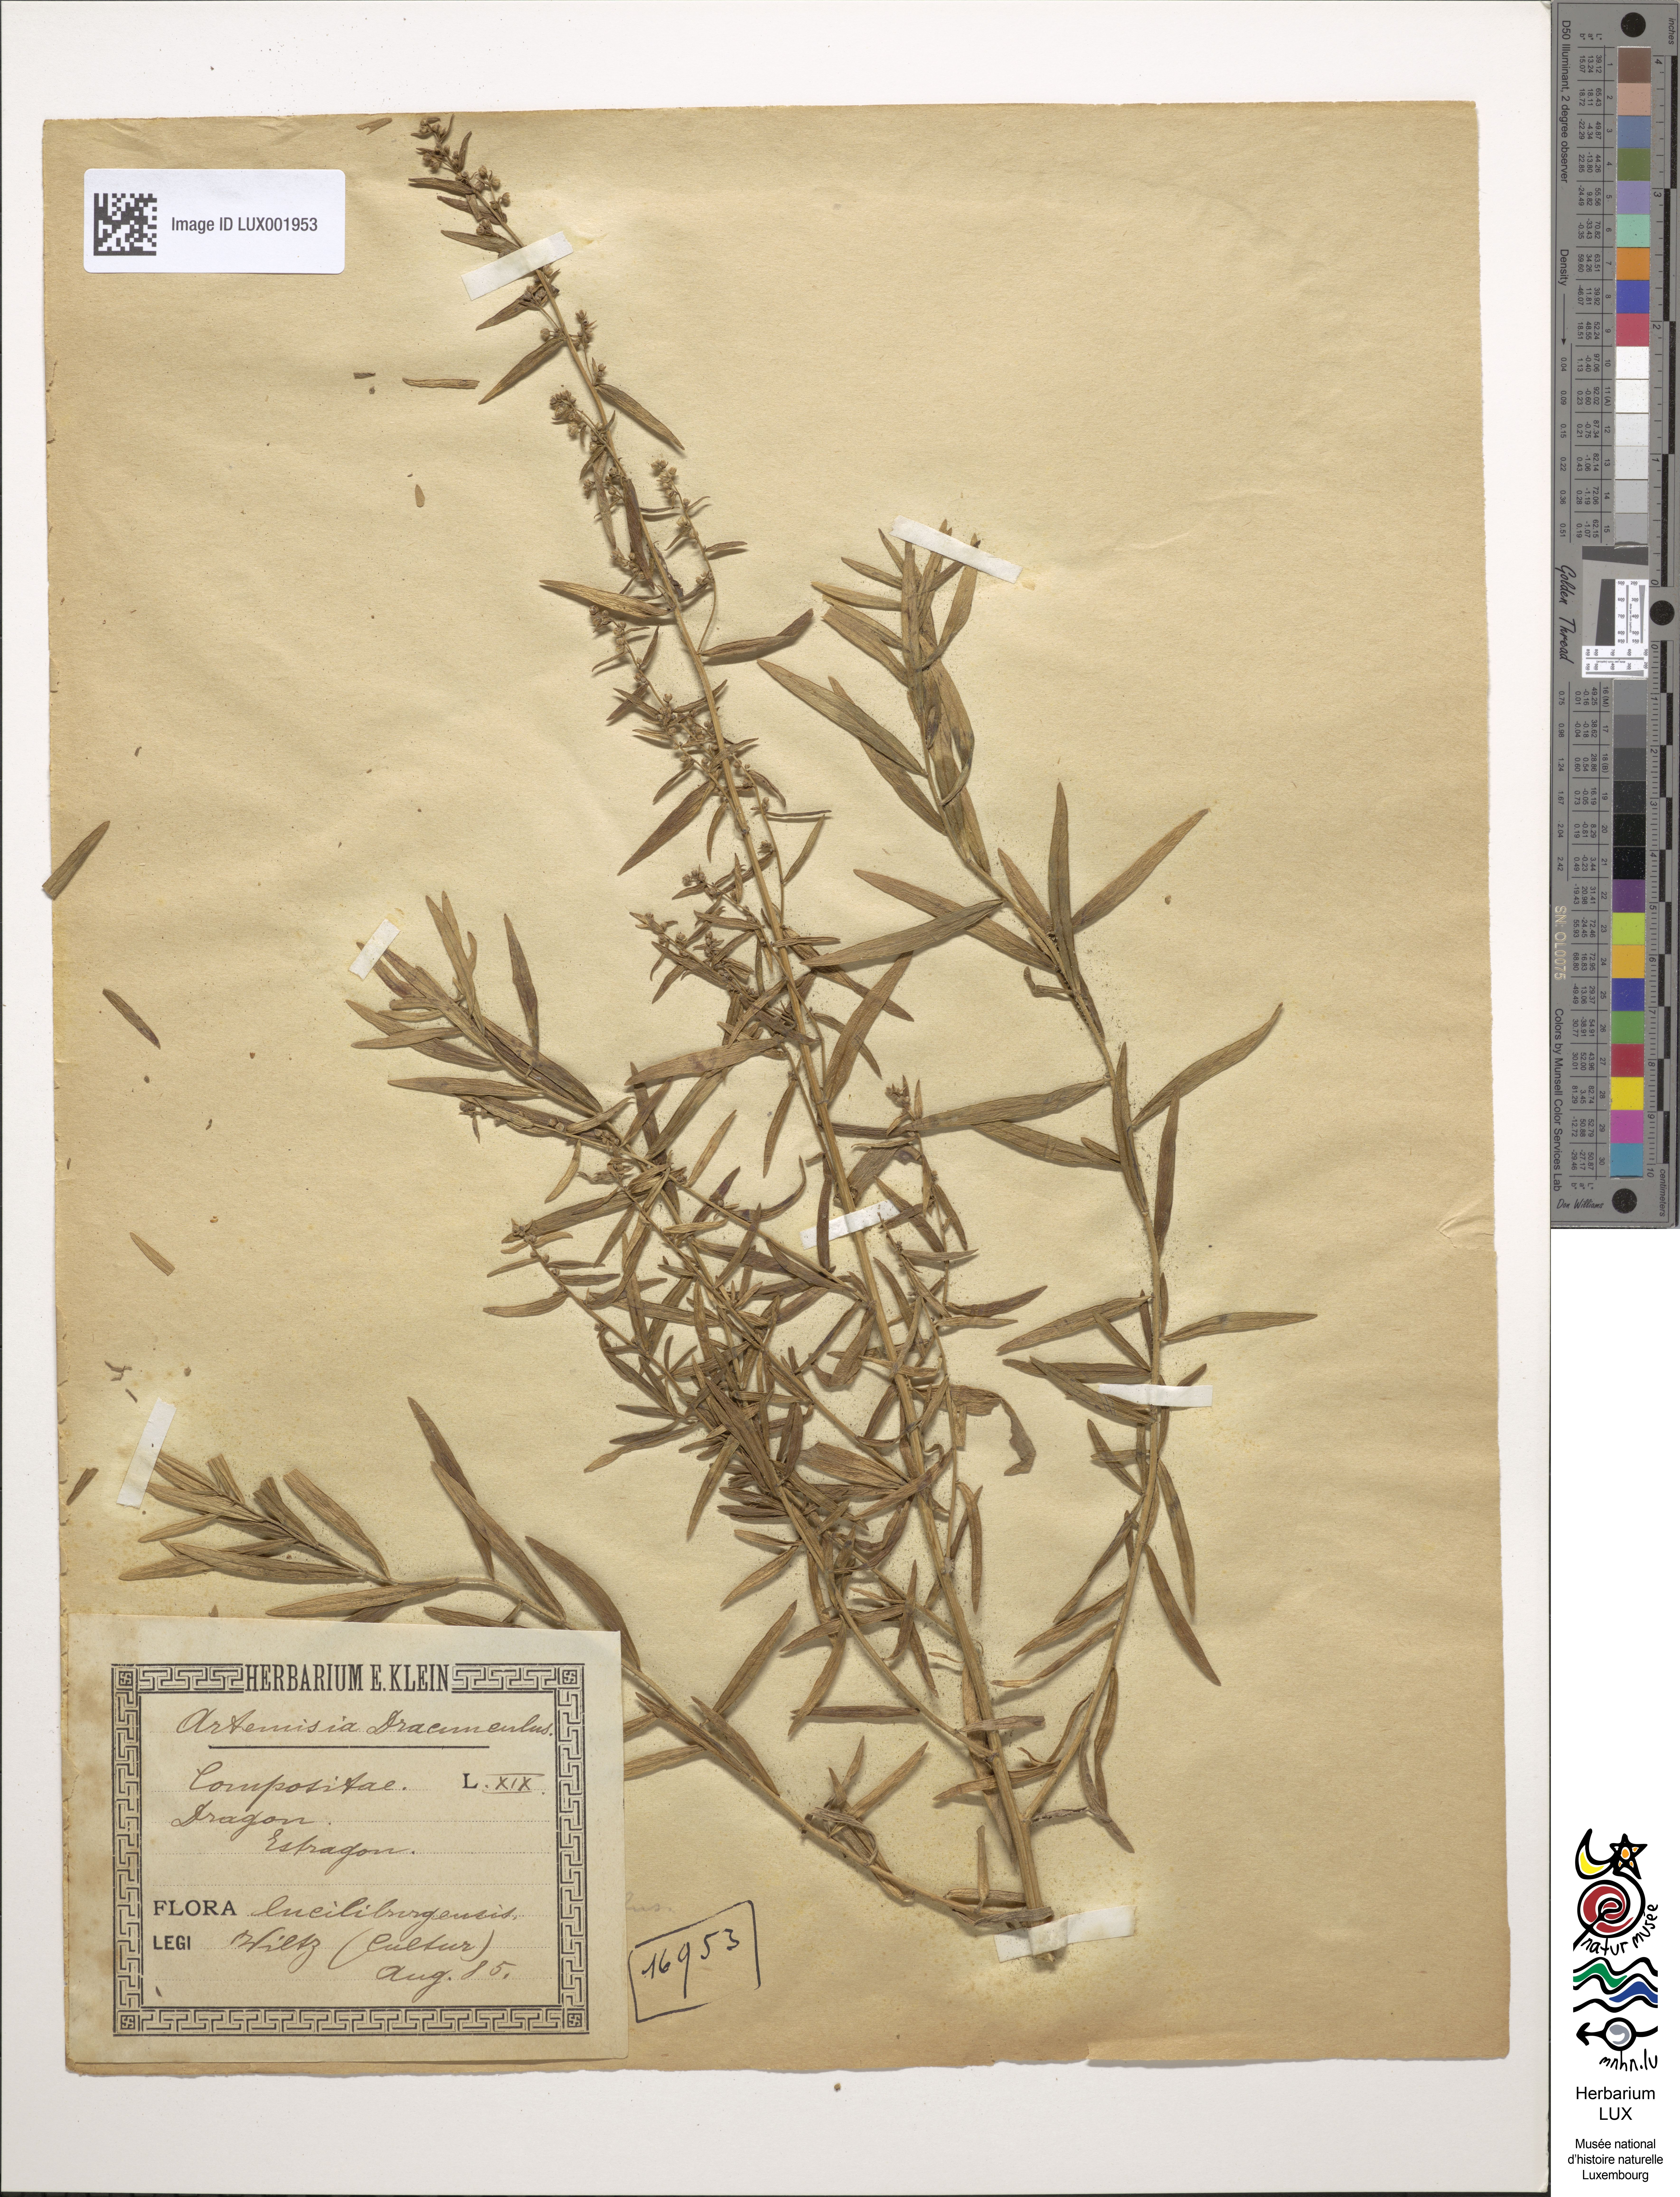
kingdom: Plantae
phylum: Tracheophyta
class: Magnoliopsida
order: Asterales
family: Asteraceae
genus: Artemisia
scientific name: Artemisia dracunculus
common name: Tarragon
